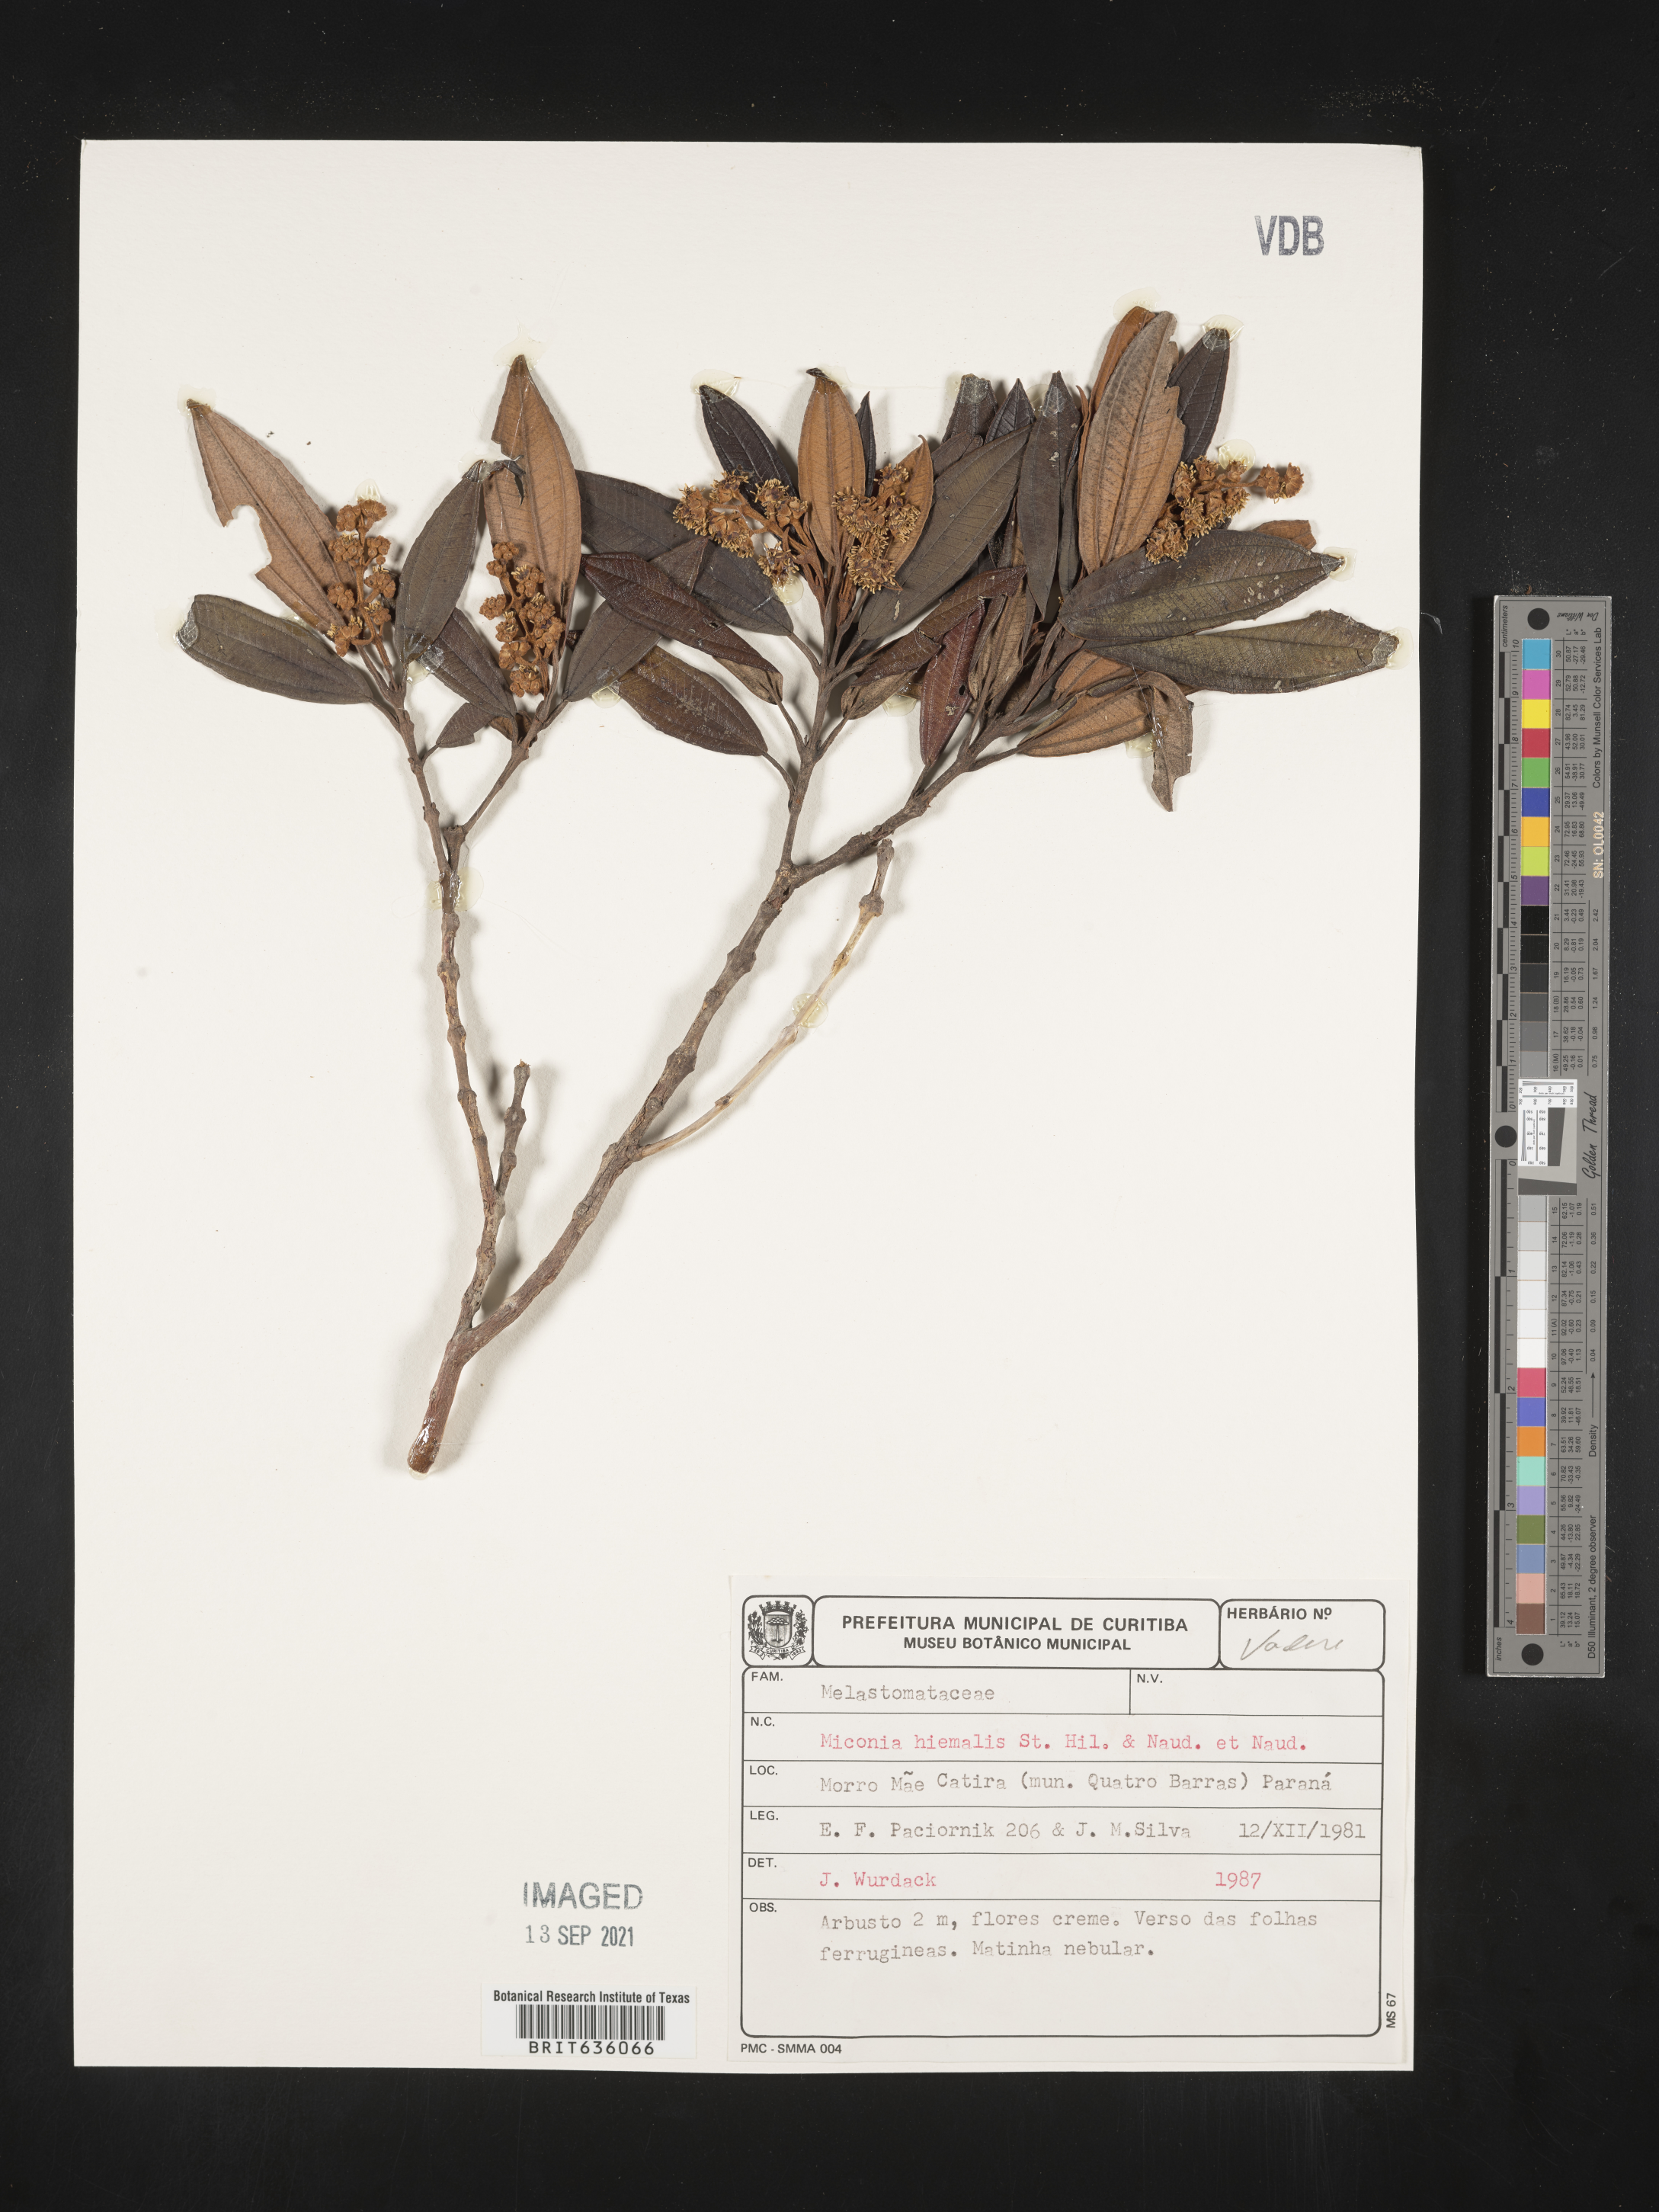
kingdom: Plantae
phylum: Tracheophyta
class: Magnoliopsida
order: Myrtales
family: Melastomataceae
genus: Miconia
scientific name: Miconia
